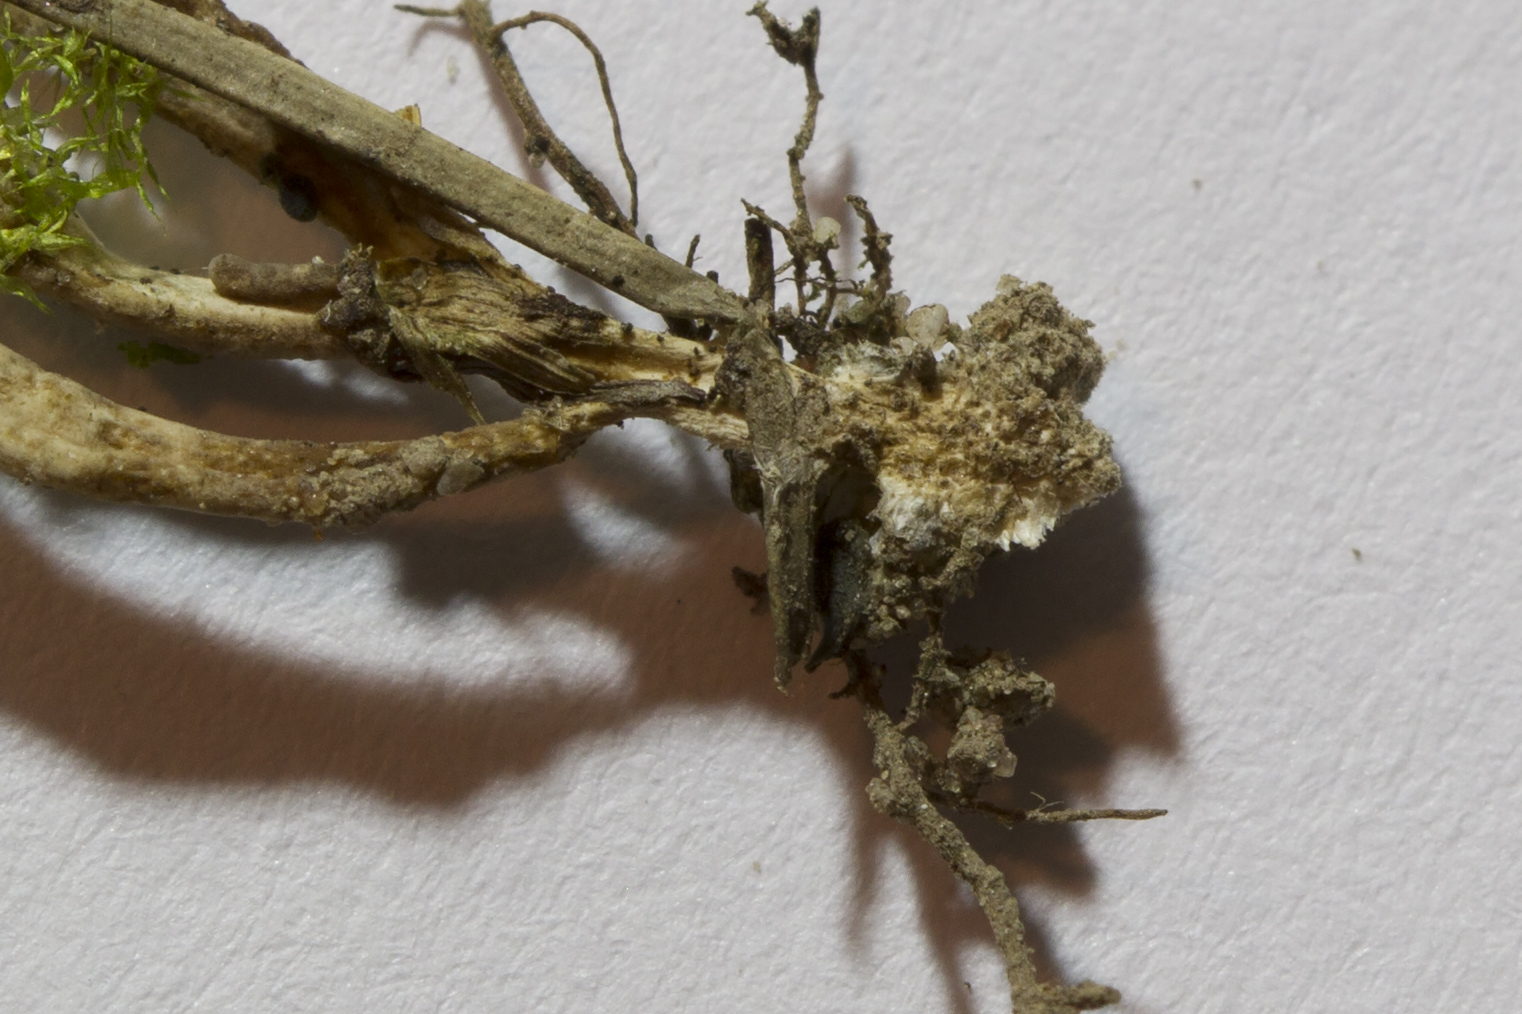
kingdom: Fungi
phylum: Basidiomycota
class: Agaricomycetes
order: Tremellodendropsidales
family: Tremellodendropsidaceae
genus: Tremellodendropsis
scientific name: Tremellodendropsis tuberosa
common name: bævrekølle
